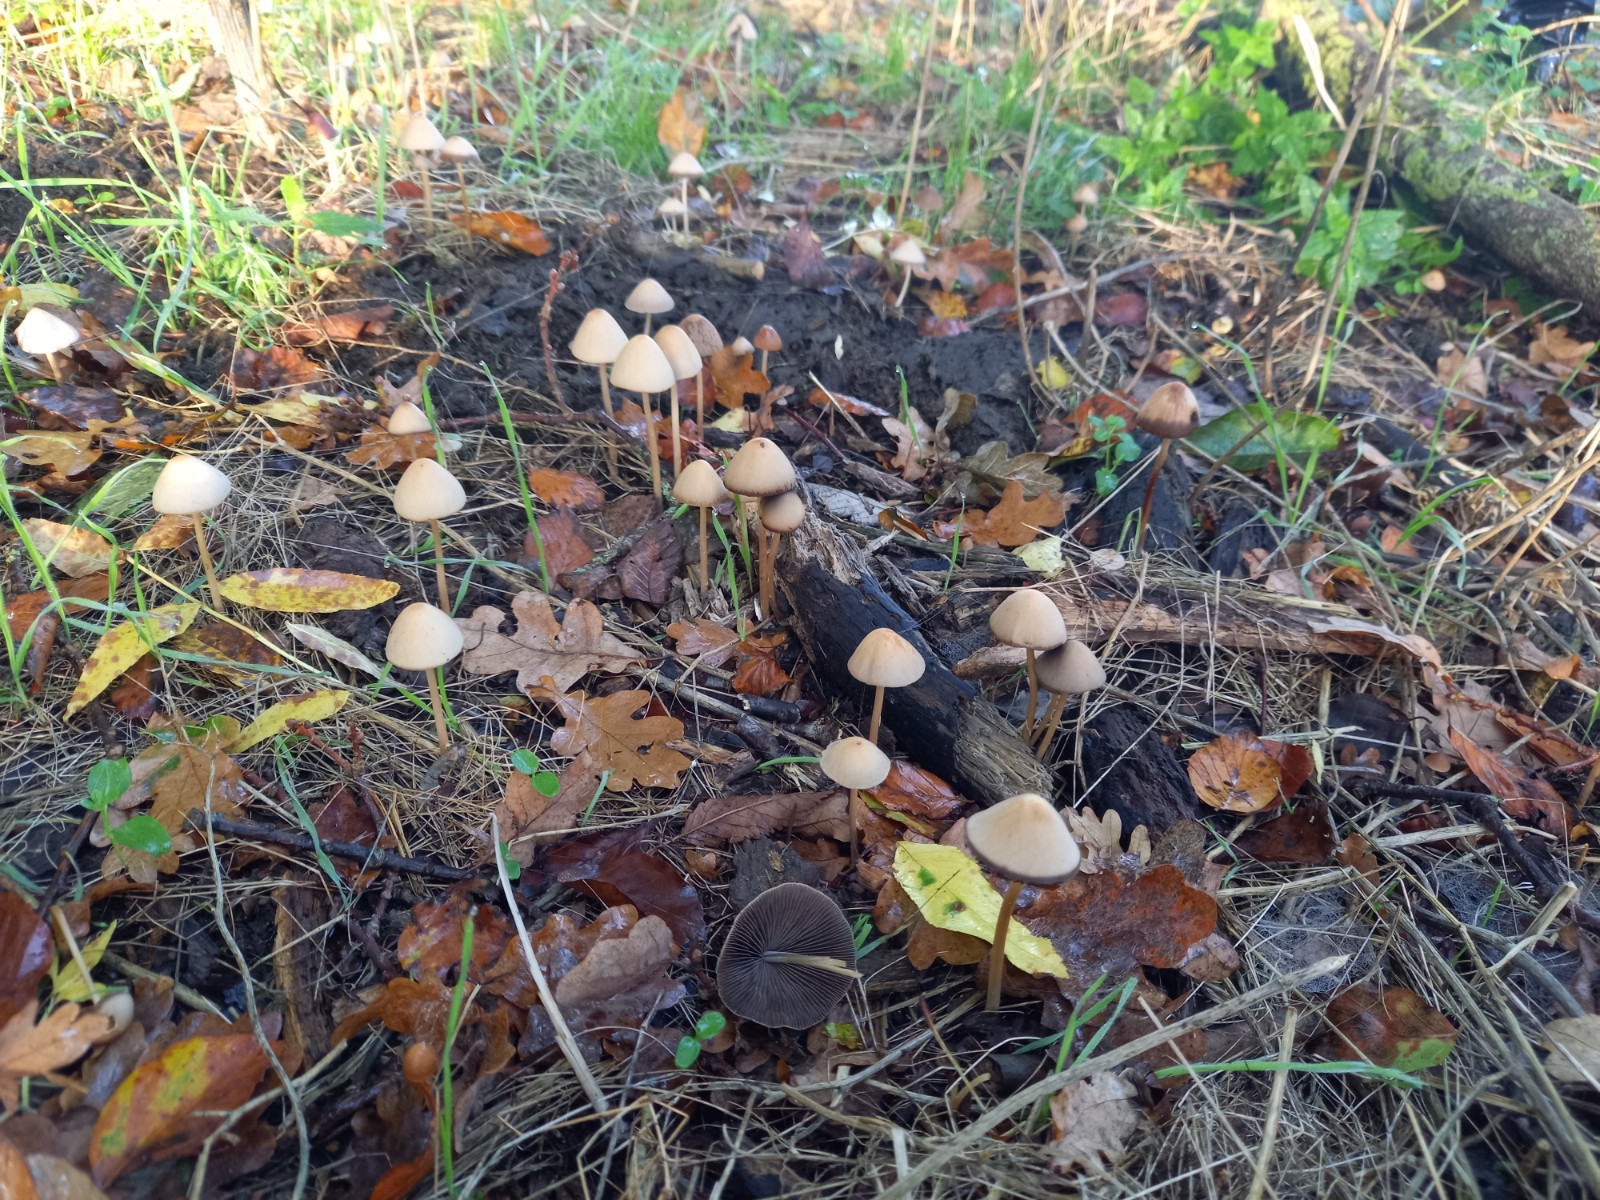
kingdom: Fungi
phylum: Basidiomycota
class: Agaricomycetes
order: Agaricales
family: Psathyrellaceae
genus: Parasola
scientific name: Parasola conopilea
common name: kegle-hjulhat
